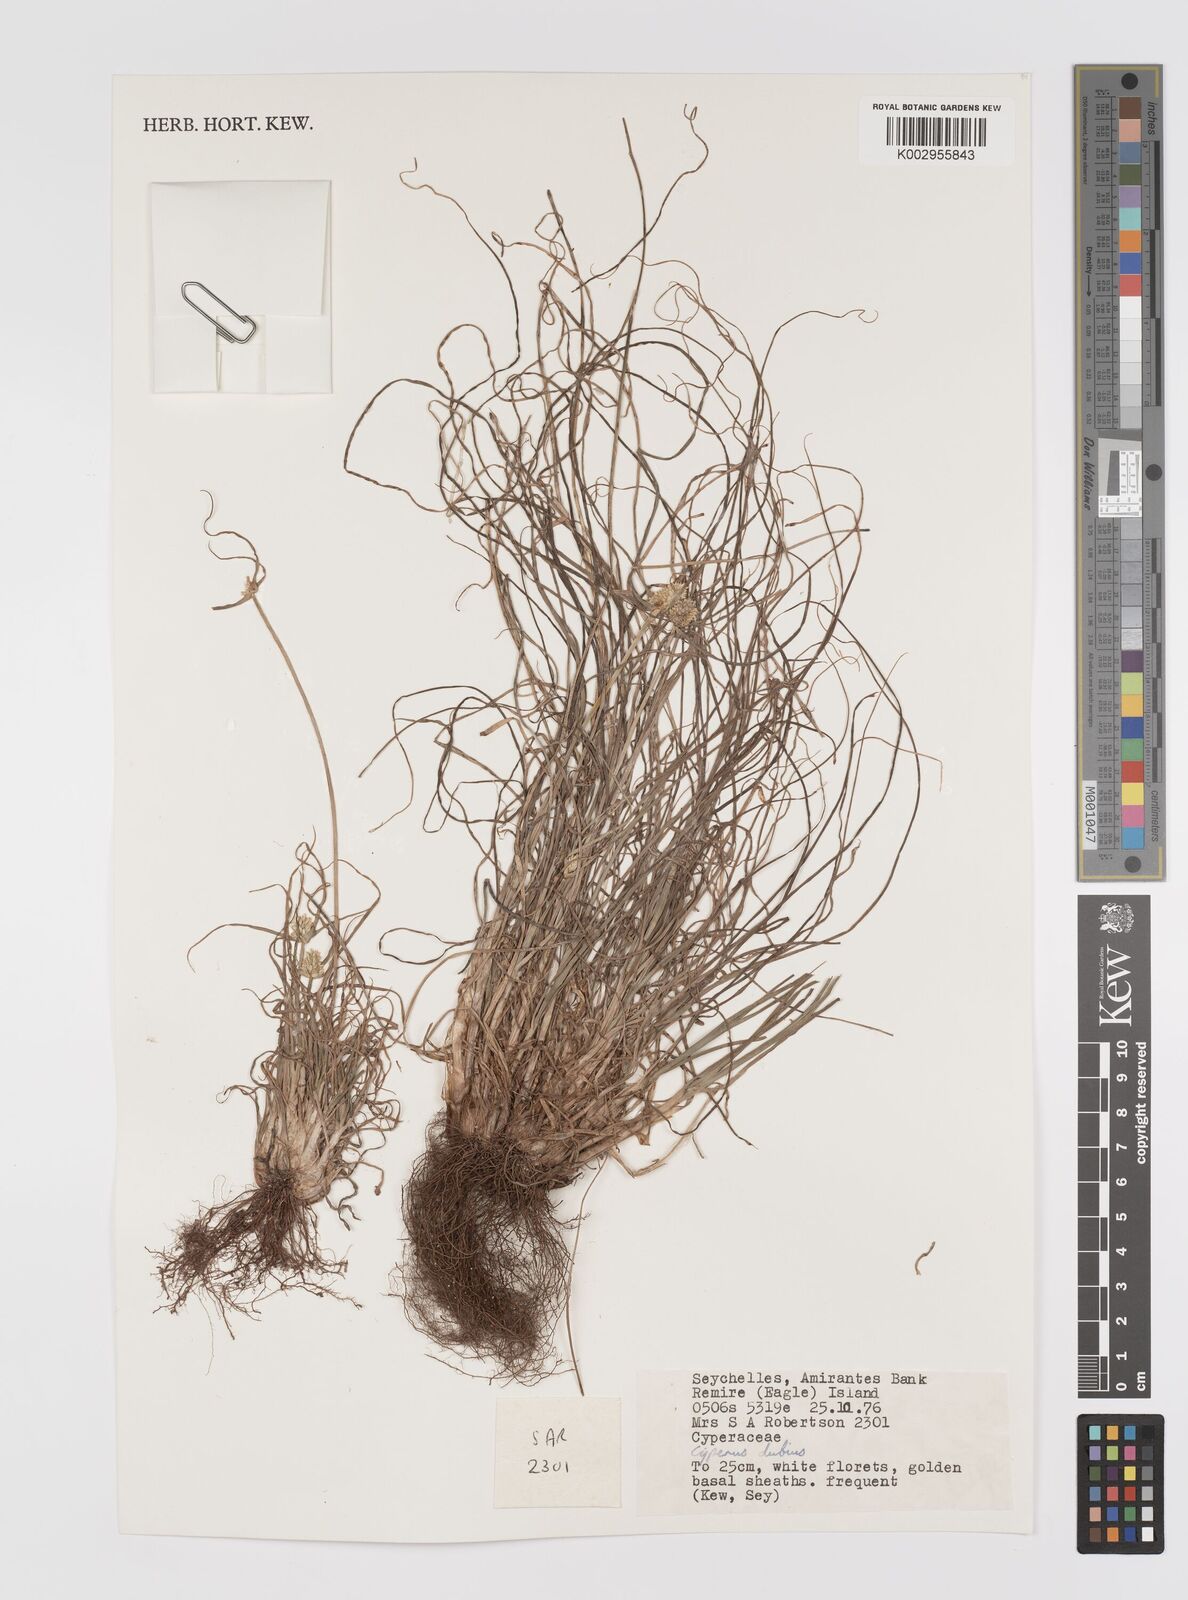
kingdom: Plantae
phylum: Tracheophyta
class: Liliopsida
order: Poales
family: Cyperaceae
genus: Cyperus
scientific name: Cyperus dubius
